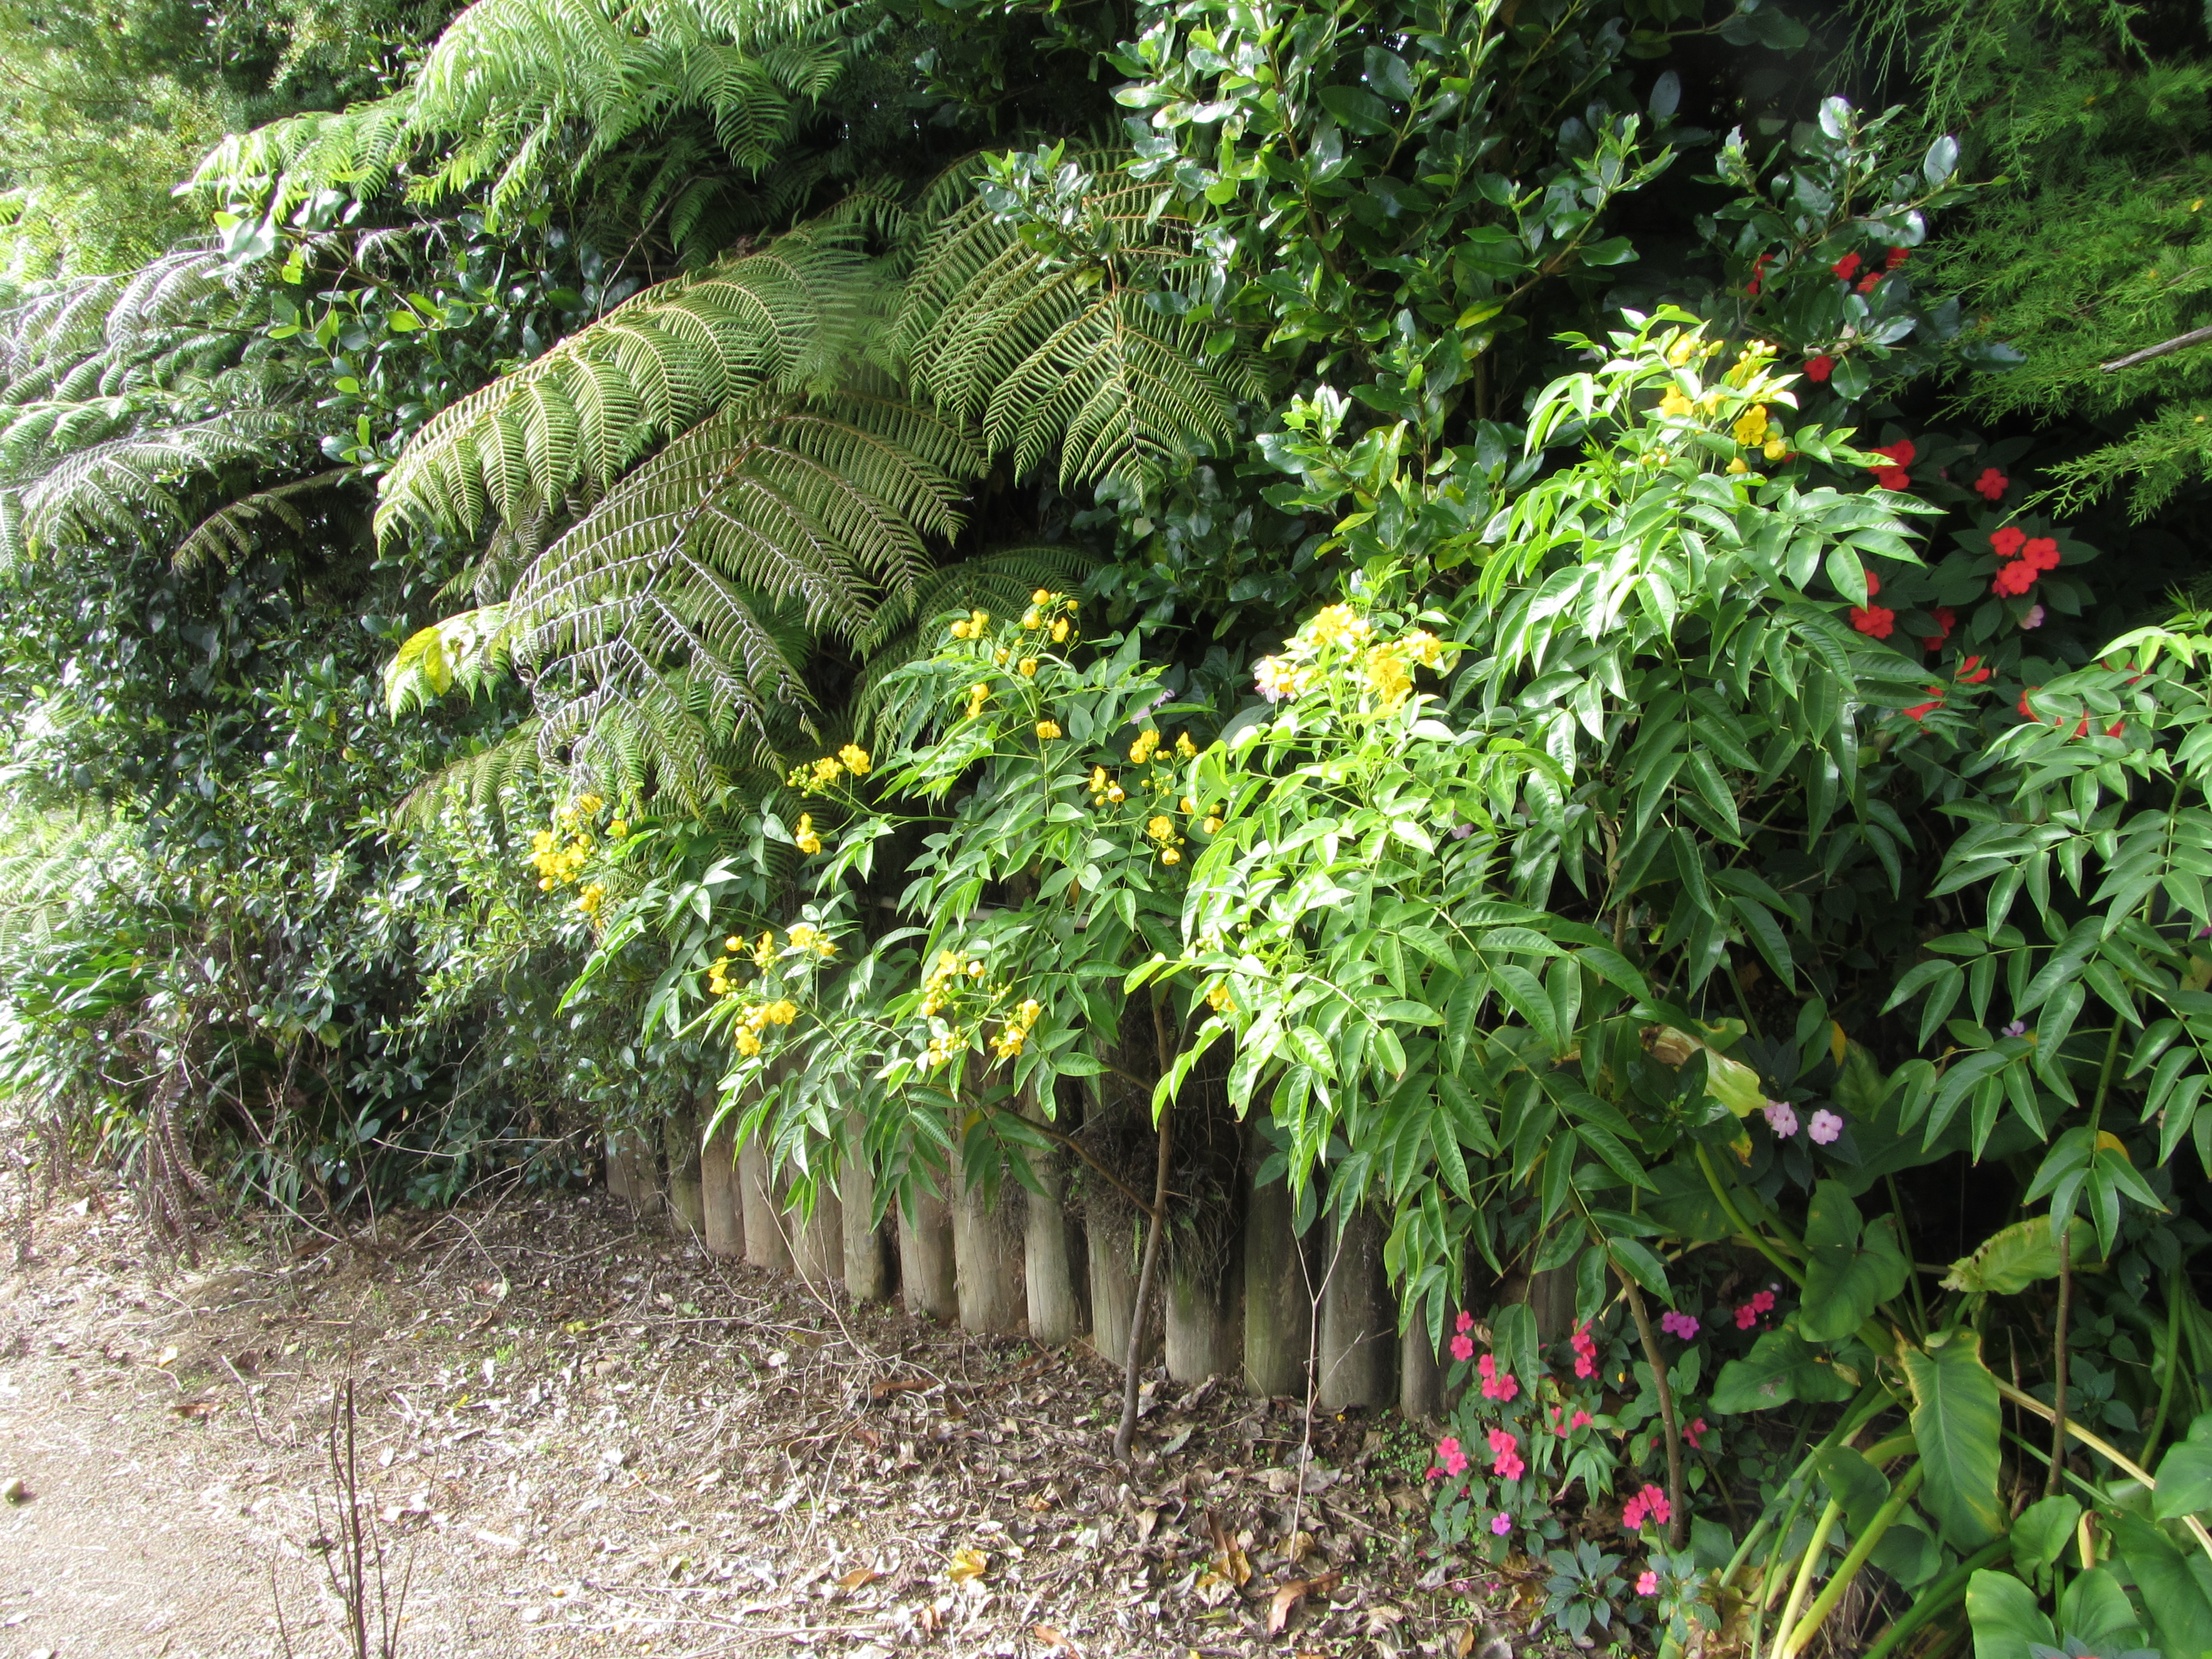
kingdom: Plantae
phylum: Tracheophyta
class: Magnoliopsida
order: Fabales
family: Fabaceae
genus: Senna
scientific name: Senna septemtrionalis
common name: Arsenic bush
